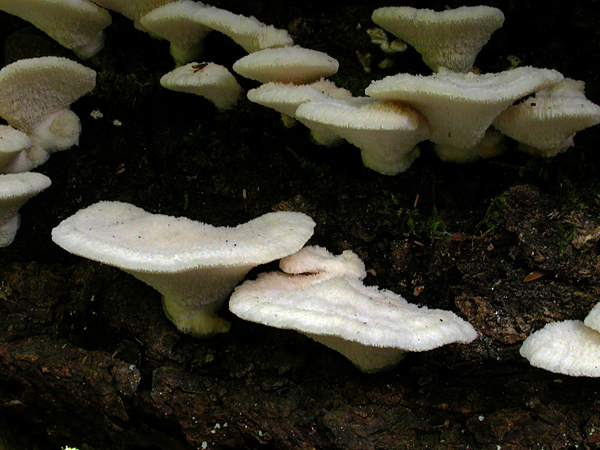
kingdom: Fungi
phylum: Basidiomycota
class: Agaricomycetes
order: Polyporales
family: Fomitopsidaceae
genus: Climacocystis
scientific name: Climacocystis borealis
